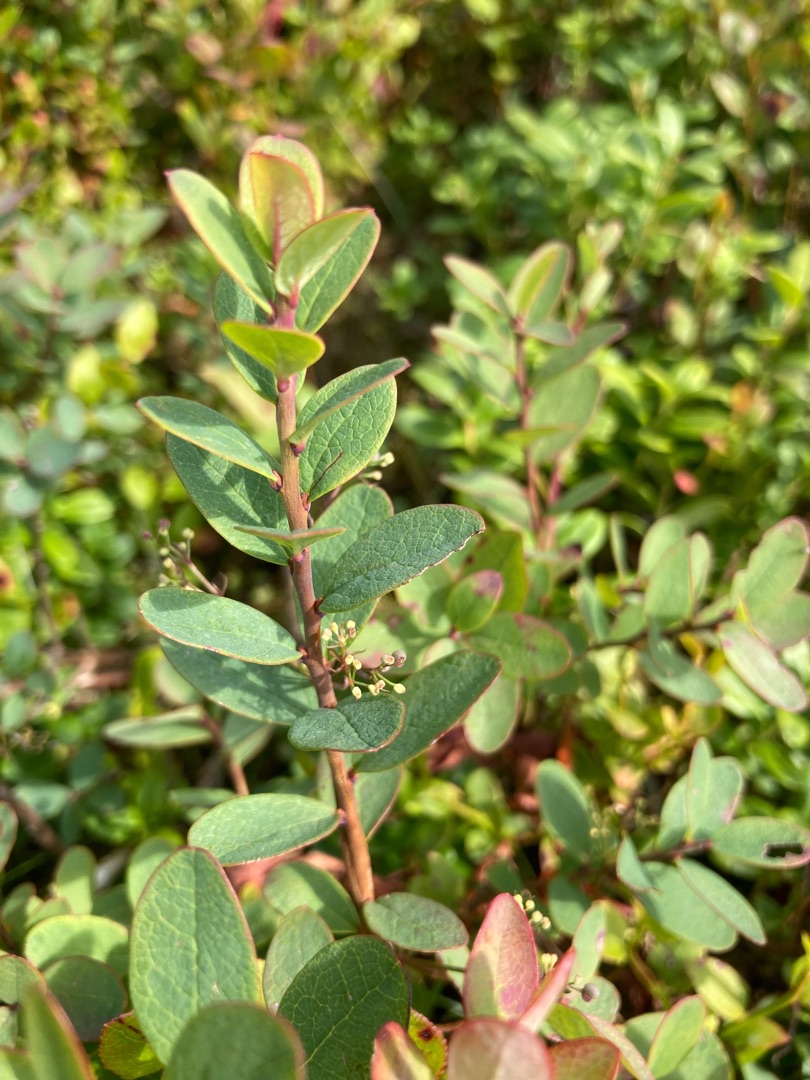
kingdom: Plantae
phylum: Tracheophyta
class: Magnoliopsida
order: Ericales
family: Ericaceae
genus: Vaccinium
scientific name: Vaccinium uliginosum
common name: Mose-bølle
